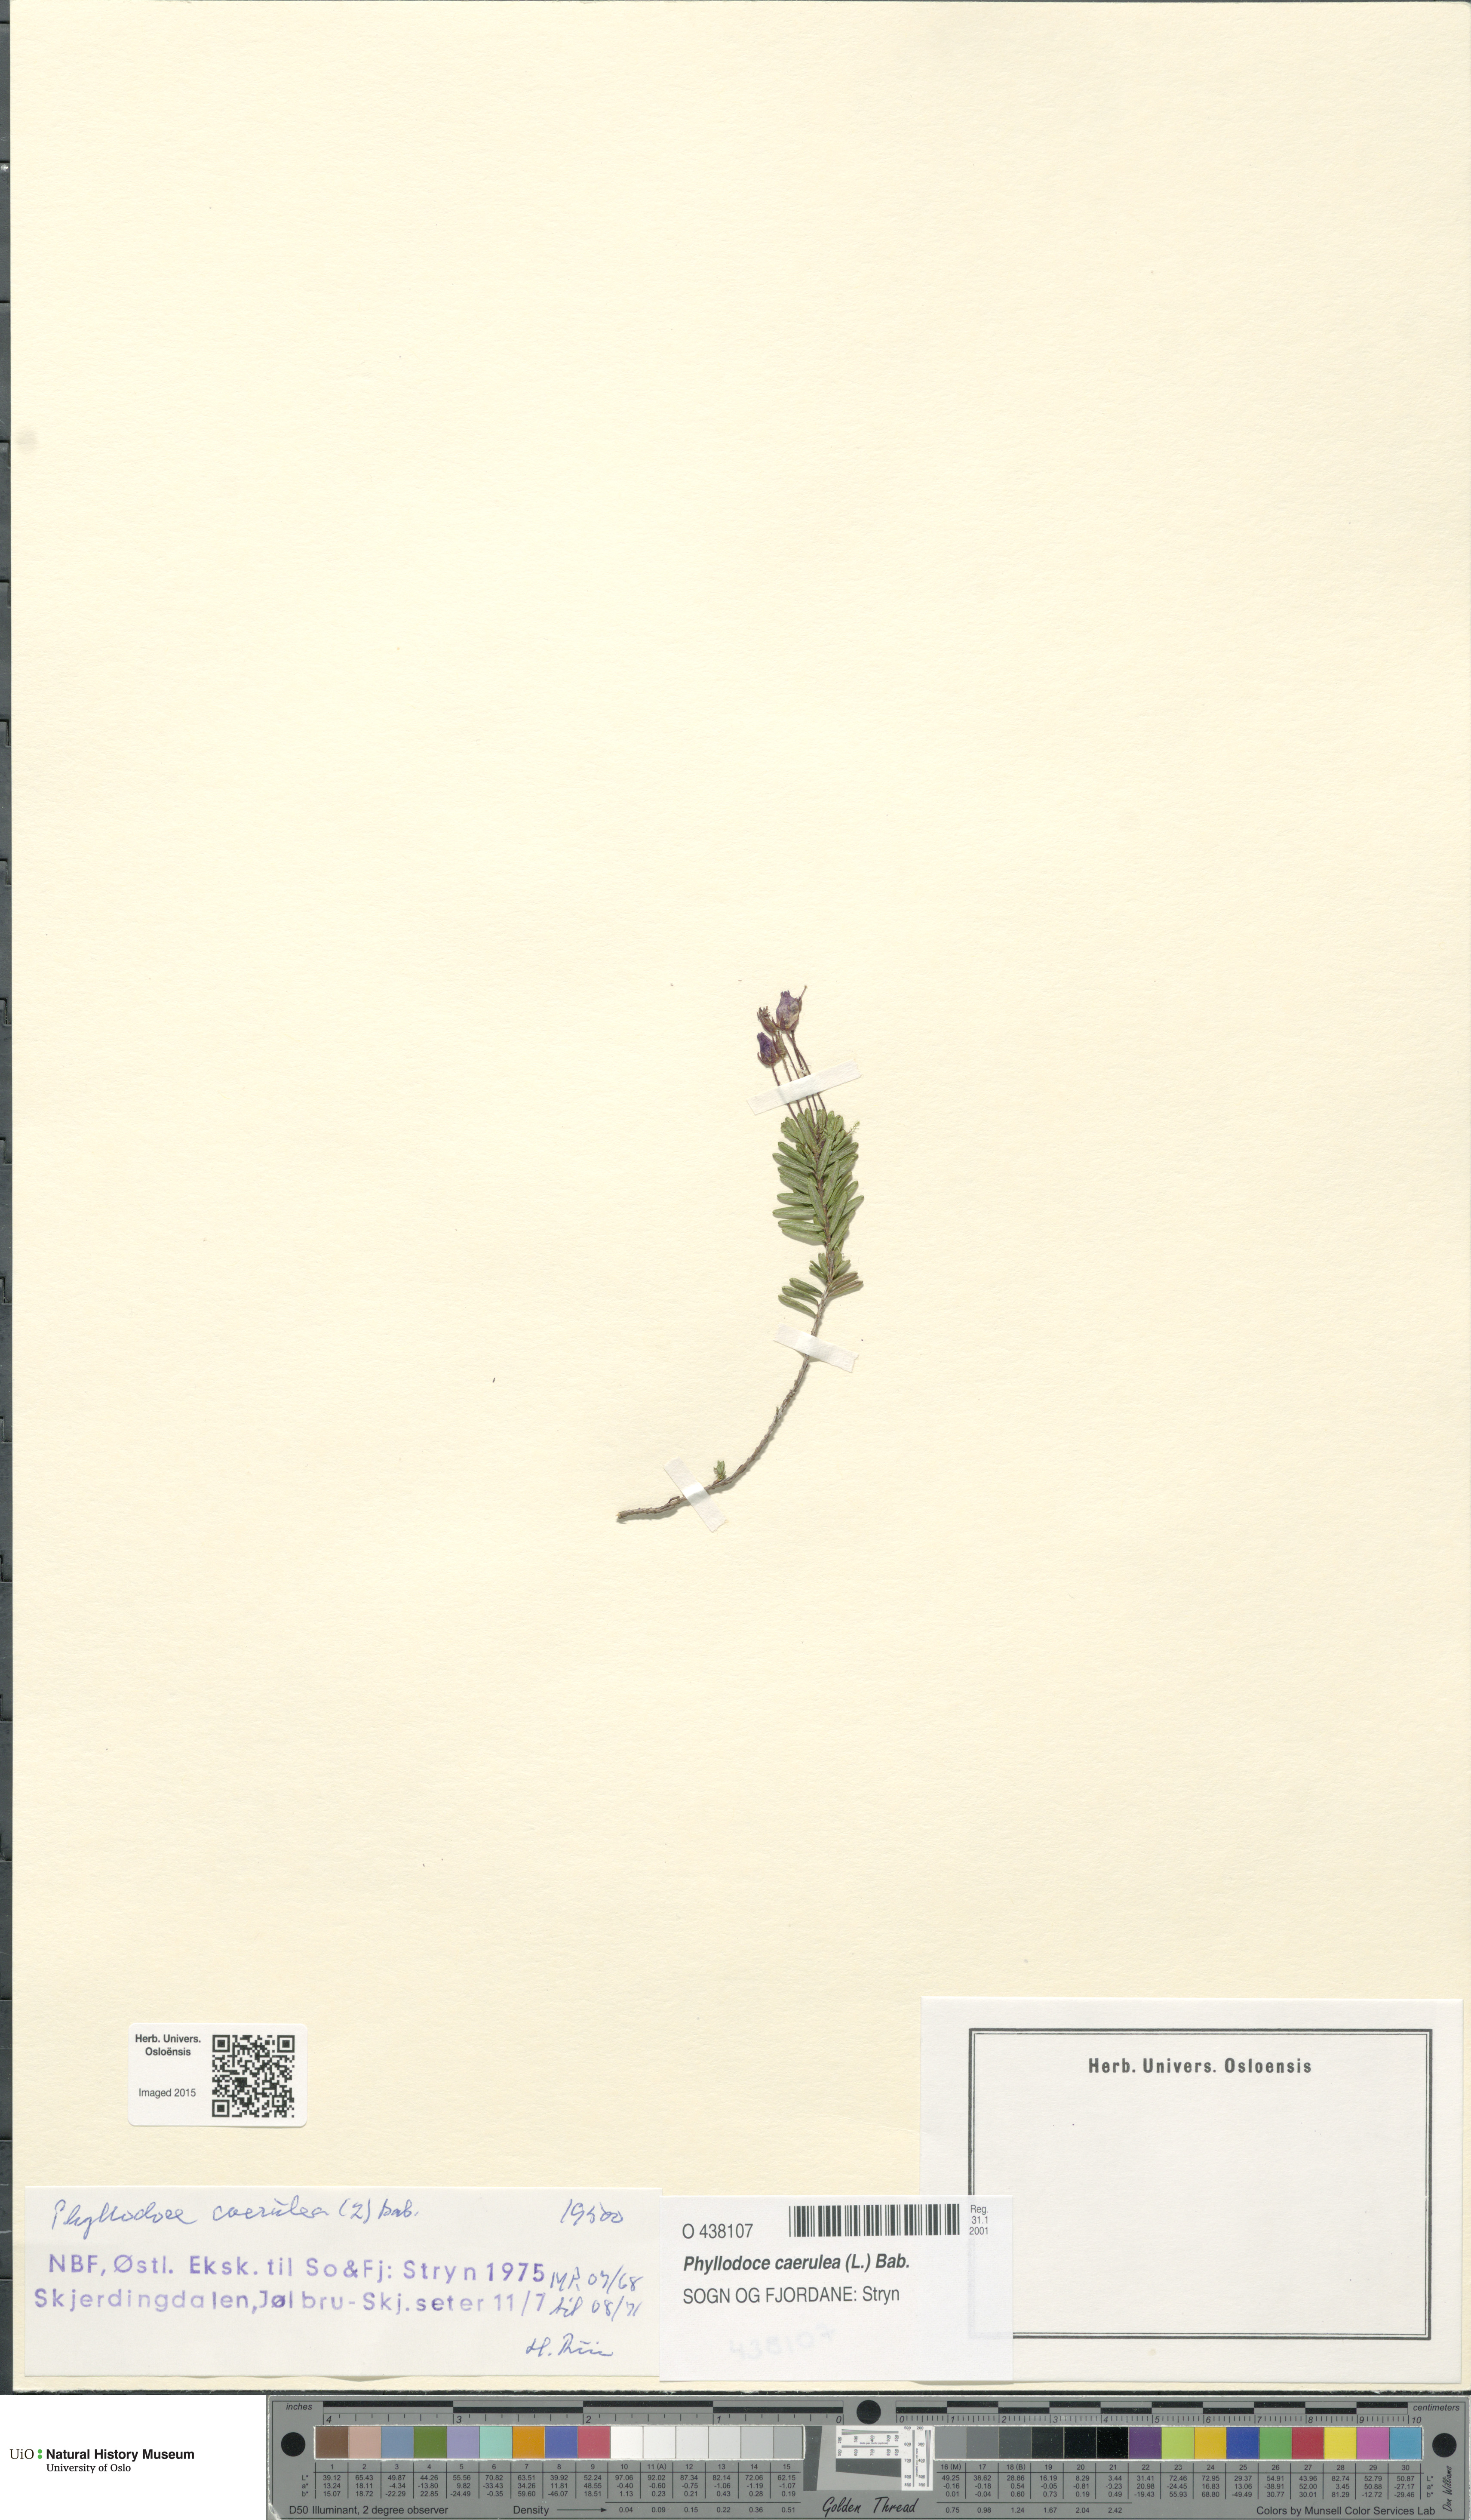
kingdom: Plantae
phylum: Tracheophyta
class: Magnoliopsida
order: Ericales
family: Ericaceae
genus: Phyllodoce
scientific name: Phyllodoce caerulea
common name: Blue heath
